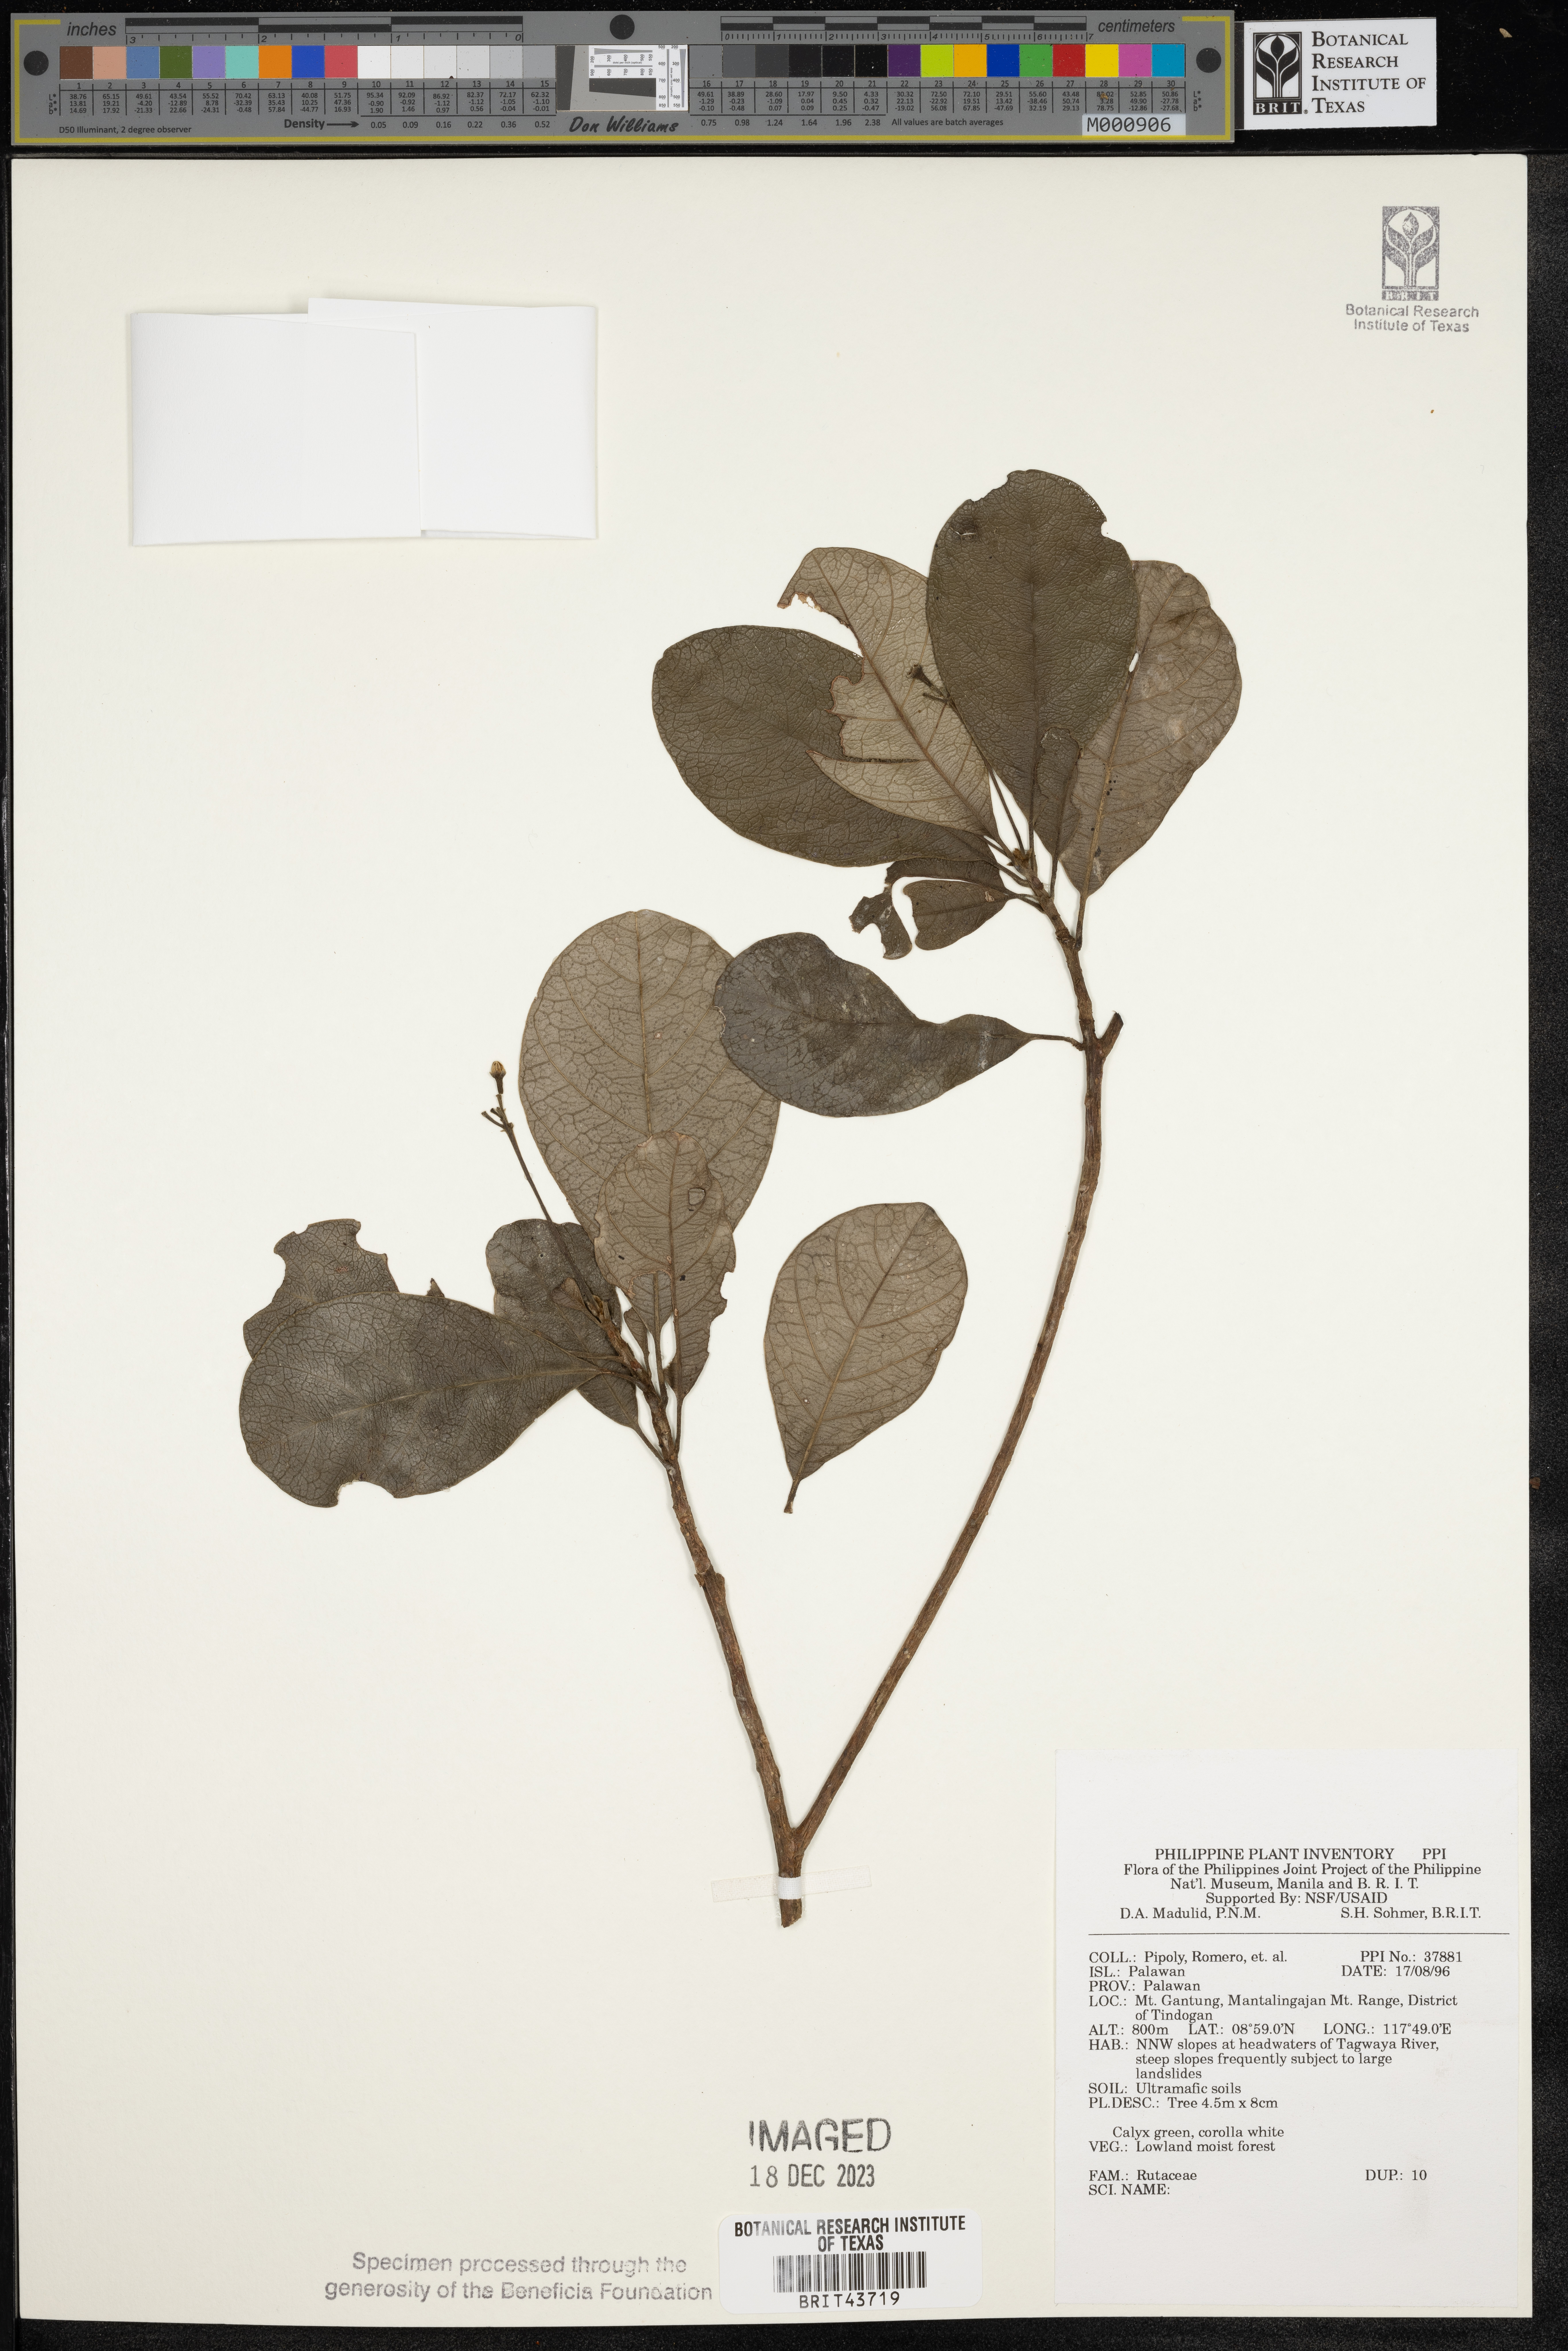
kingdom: Plantae
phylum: Tracheophyta
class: Magnoliopsida
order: Sapindales
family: Rutaceae
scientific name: Rutaceae
